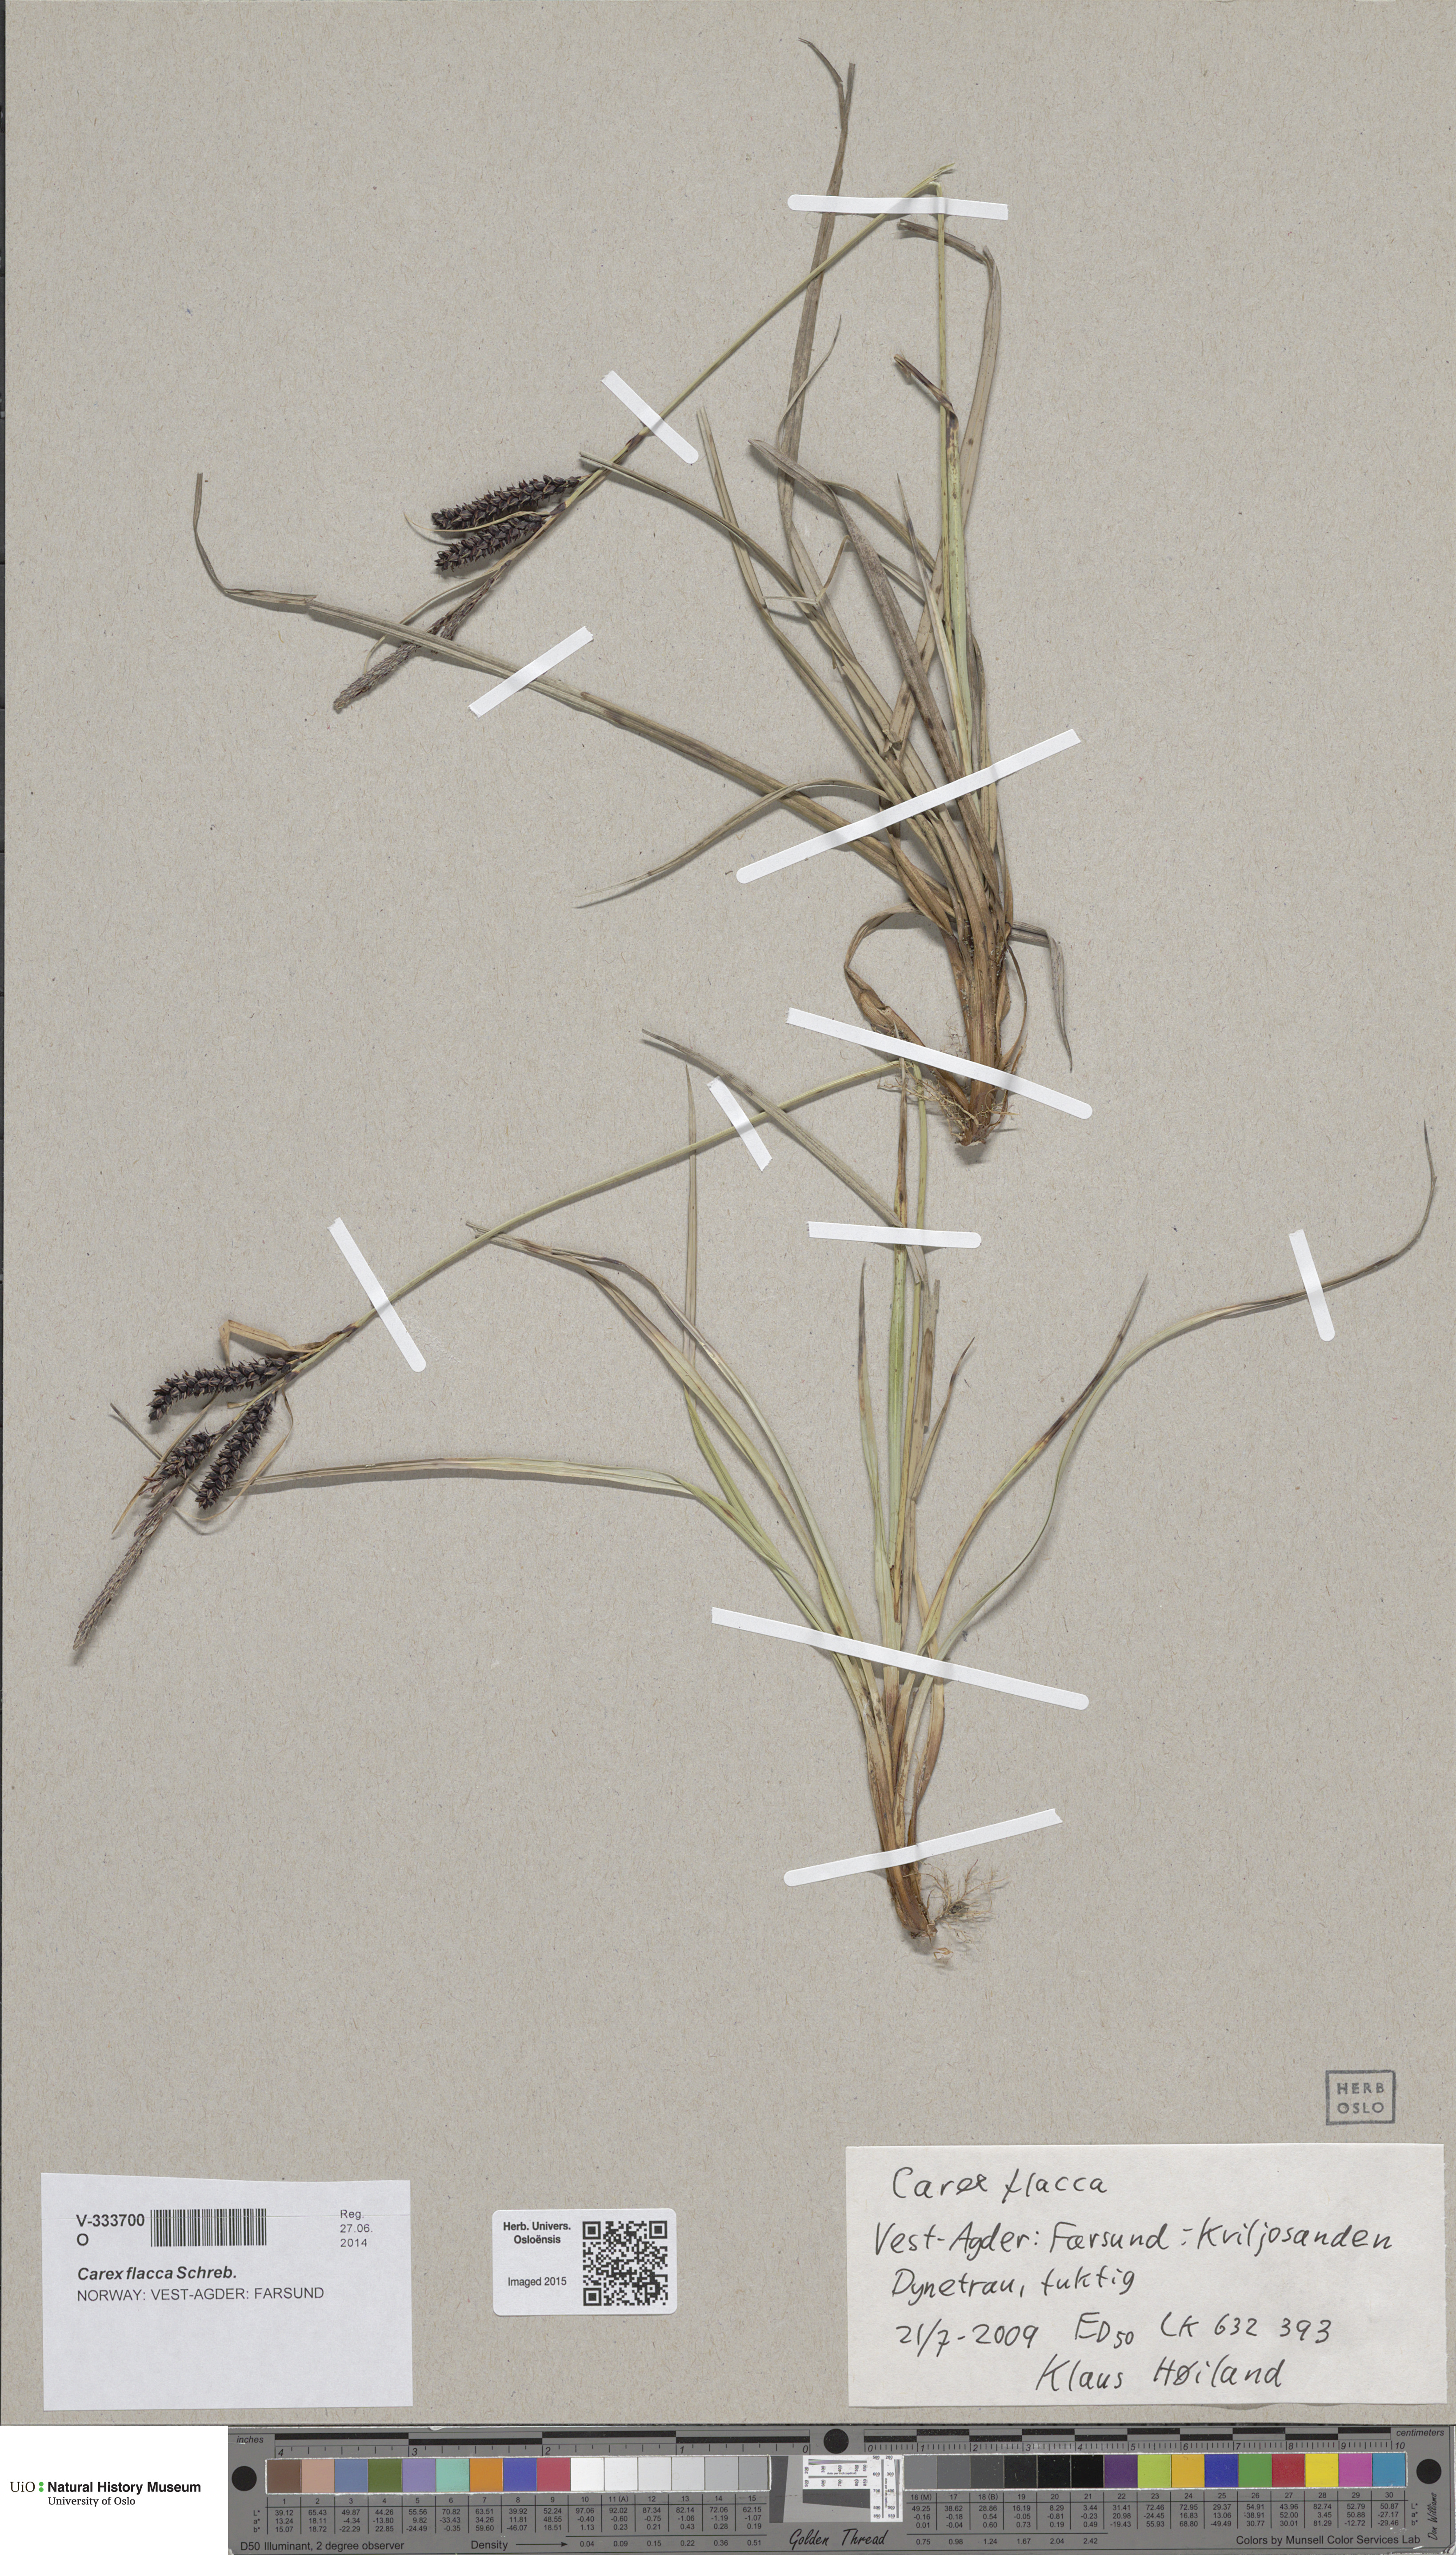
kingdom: Plantae
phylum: Tracheophyta
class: Liliopsida
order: Poales
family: Cyperaceae
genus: Carex
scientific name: Carex flacca
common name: Glaucous sedge
